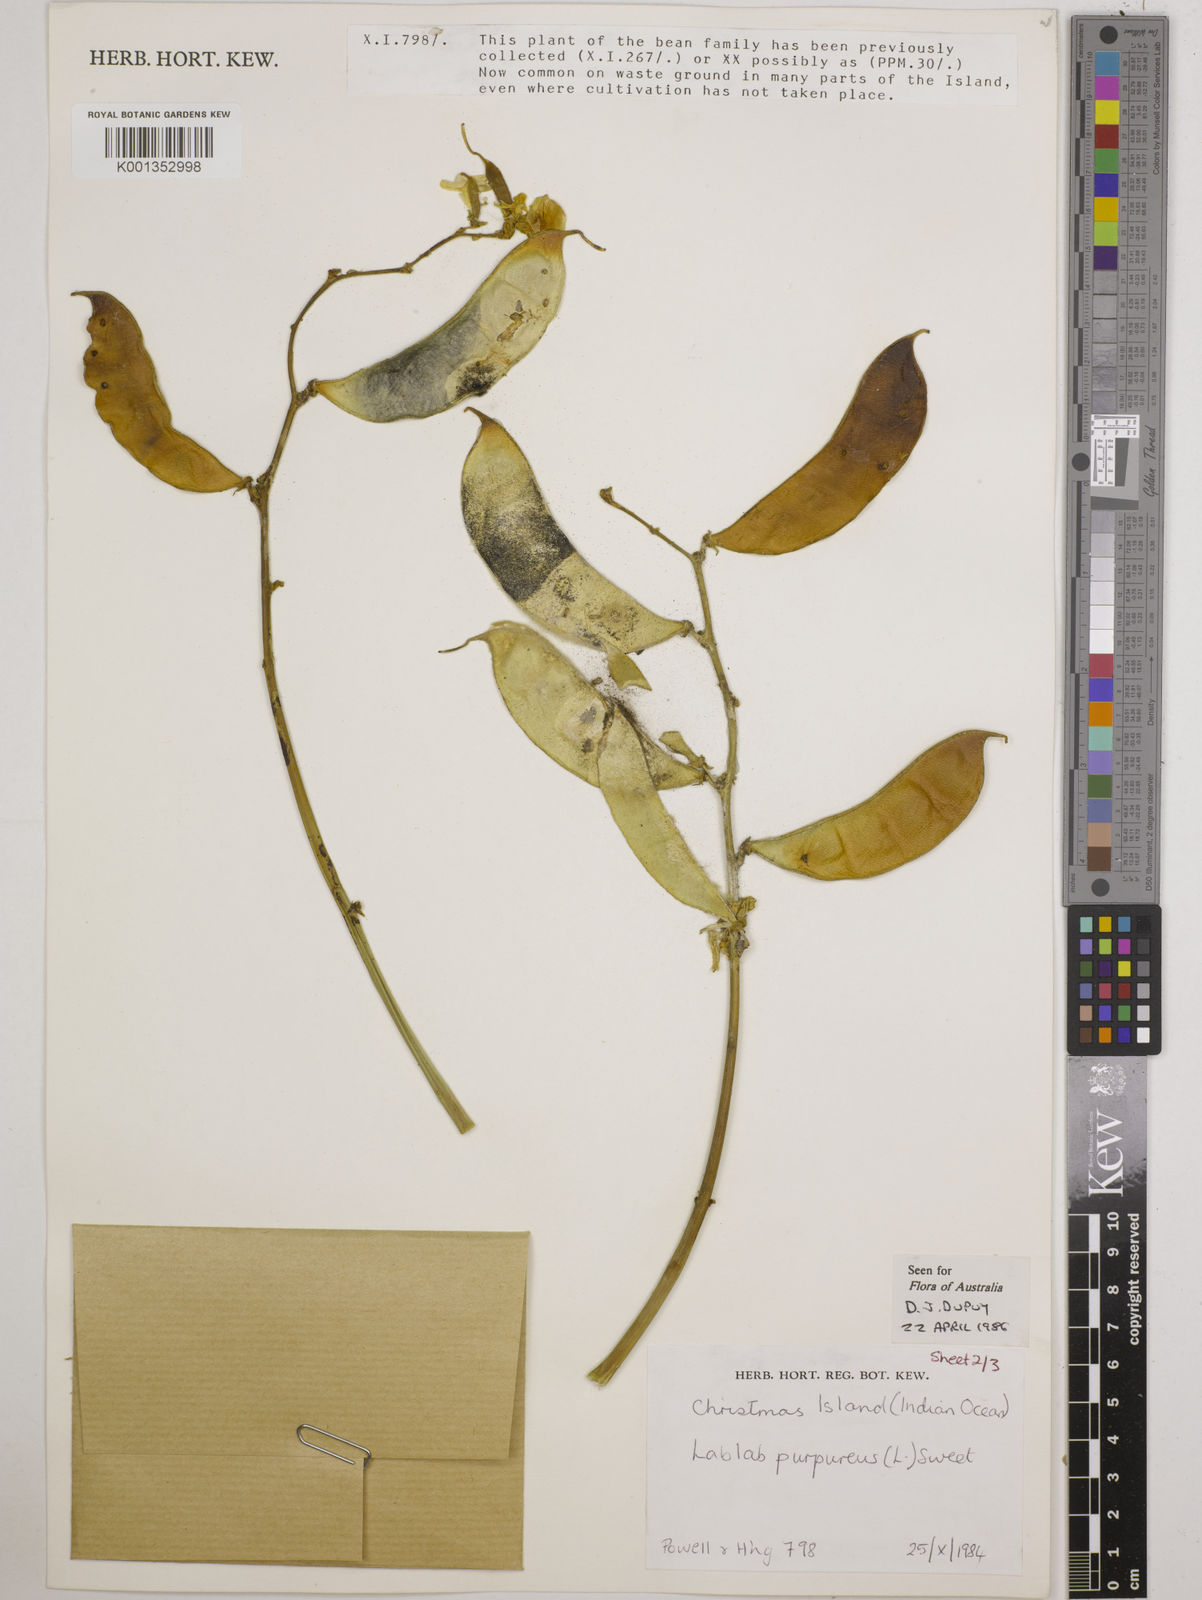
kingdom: Plantae
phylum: Tracheophyta
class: Magnoliopsida
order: Fabales
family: Fabaceae
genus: Lablab
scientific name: Lablab purpureus
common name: Lablab-bean
